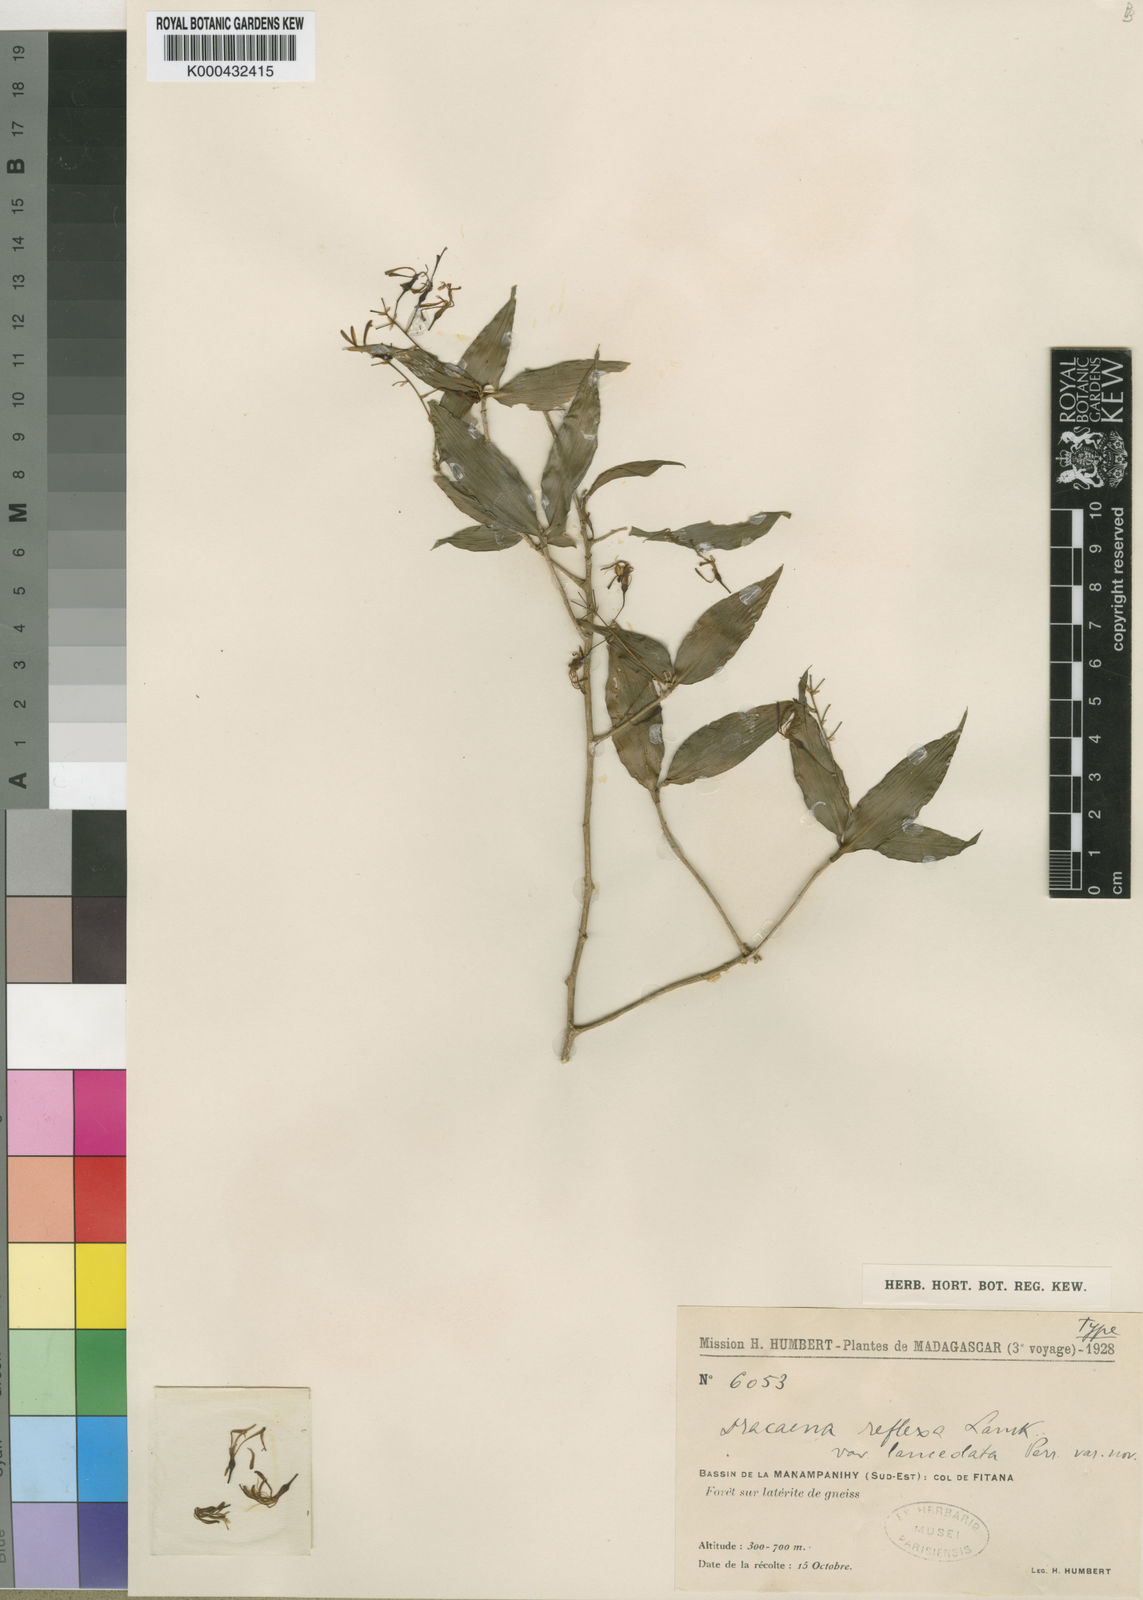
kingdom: Plantae
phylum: Tracheophyta
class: Liliopsida
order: Asparagales
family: Asparagaceae
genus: Dracaena
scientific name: Dracaena reflexa
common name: Song-of-india
